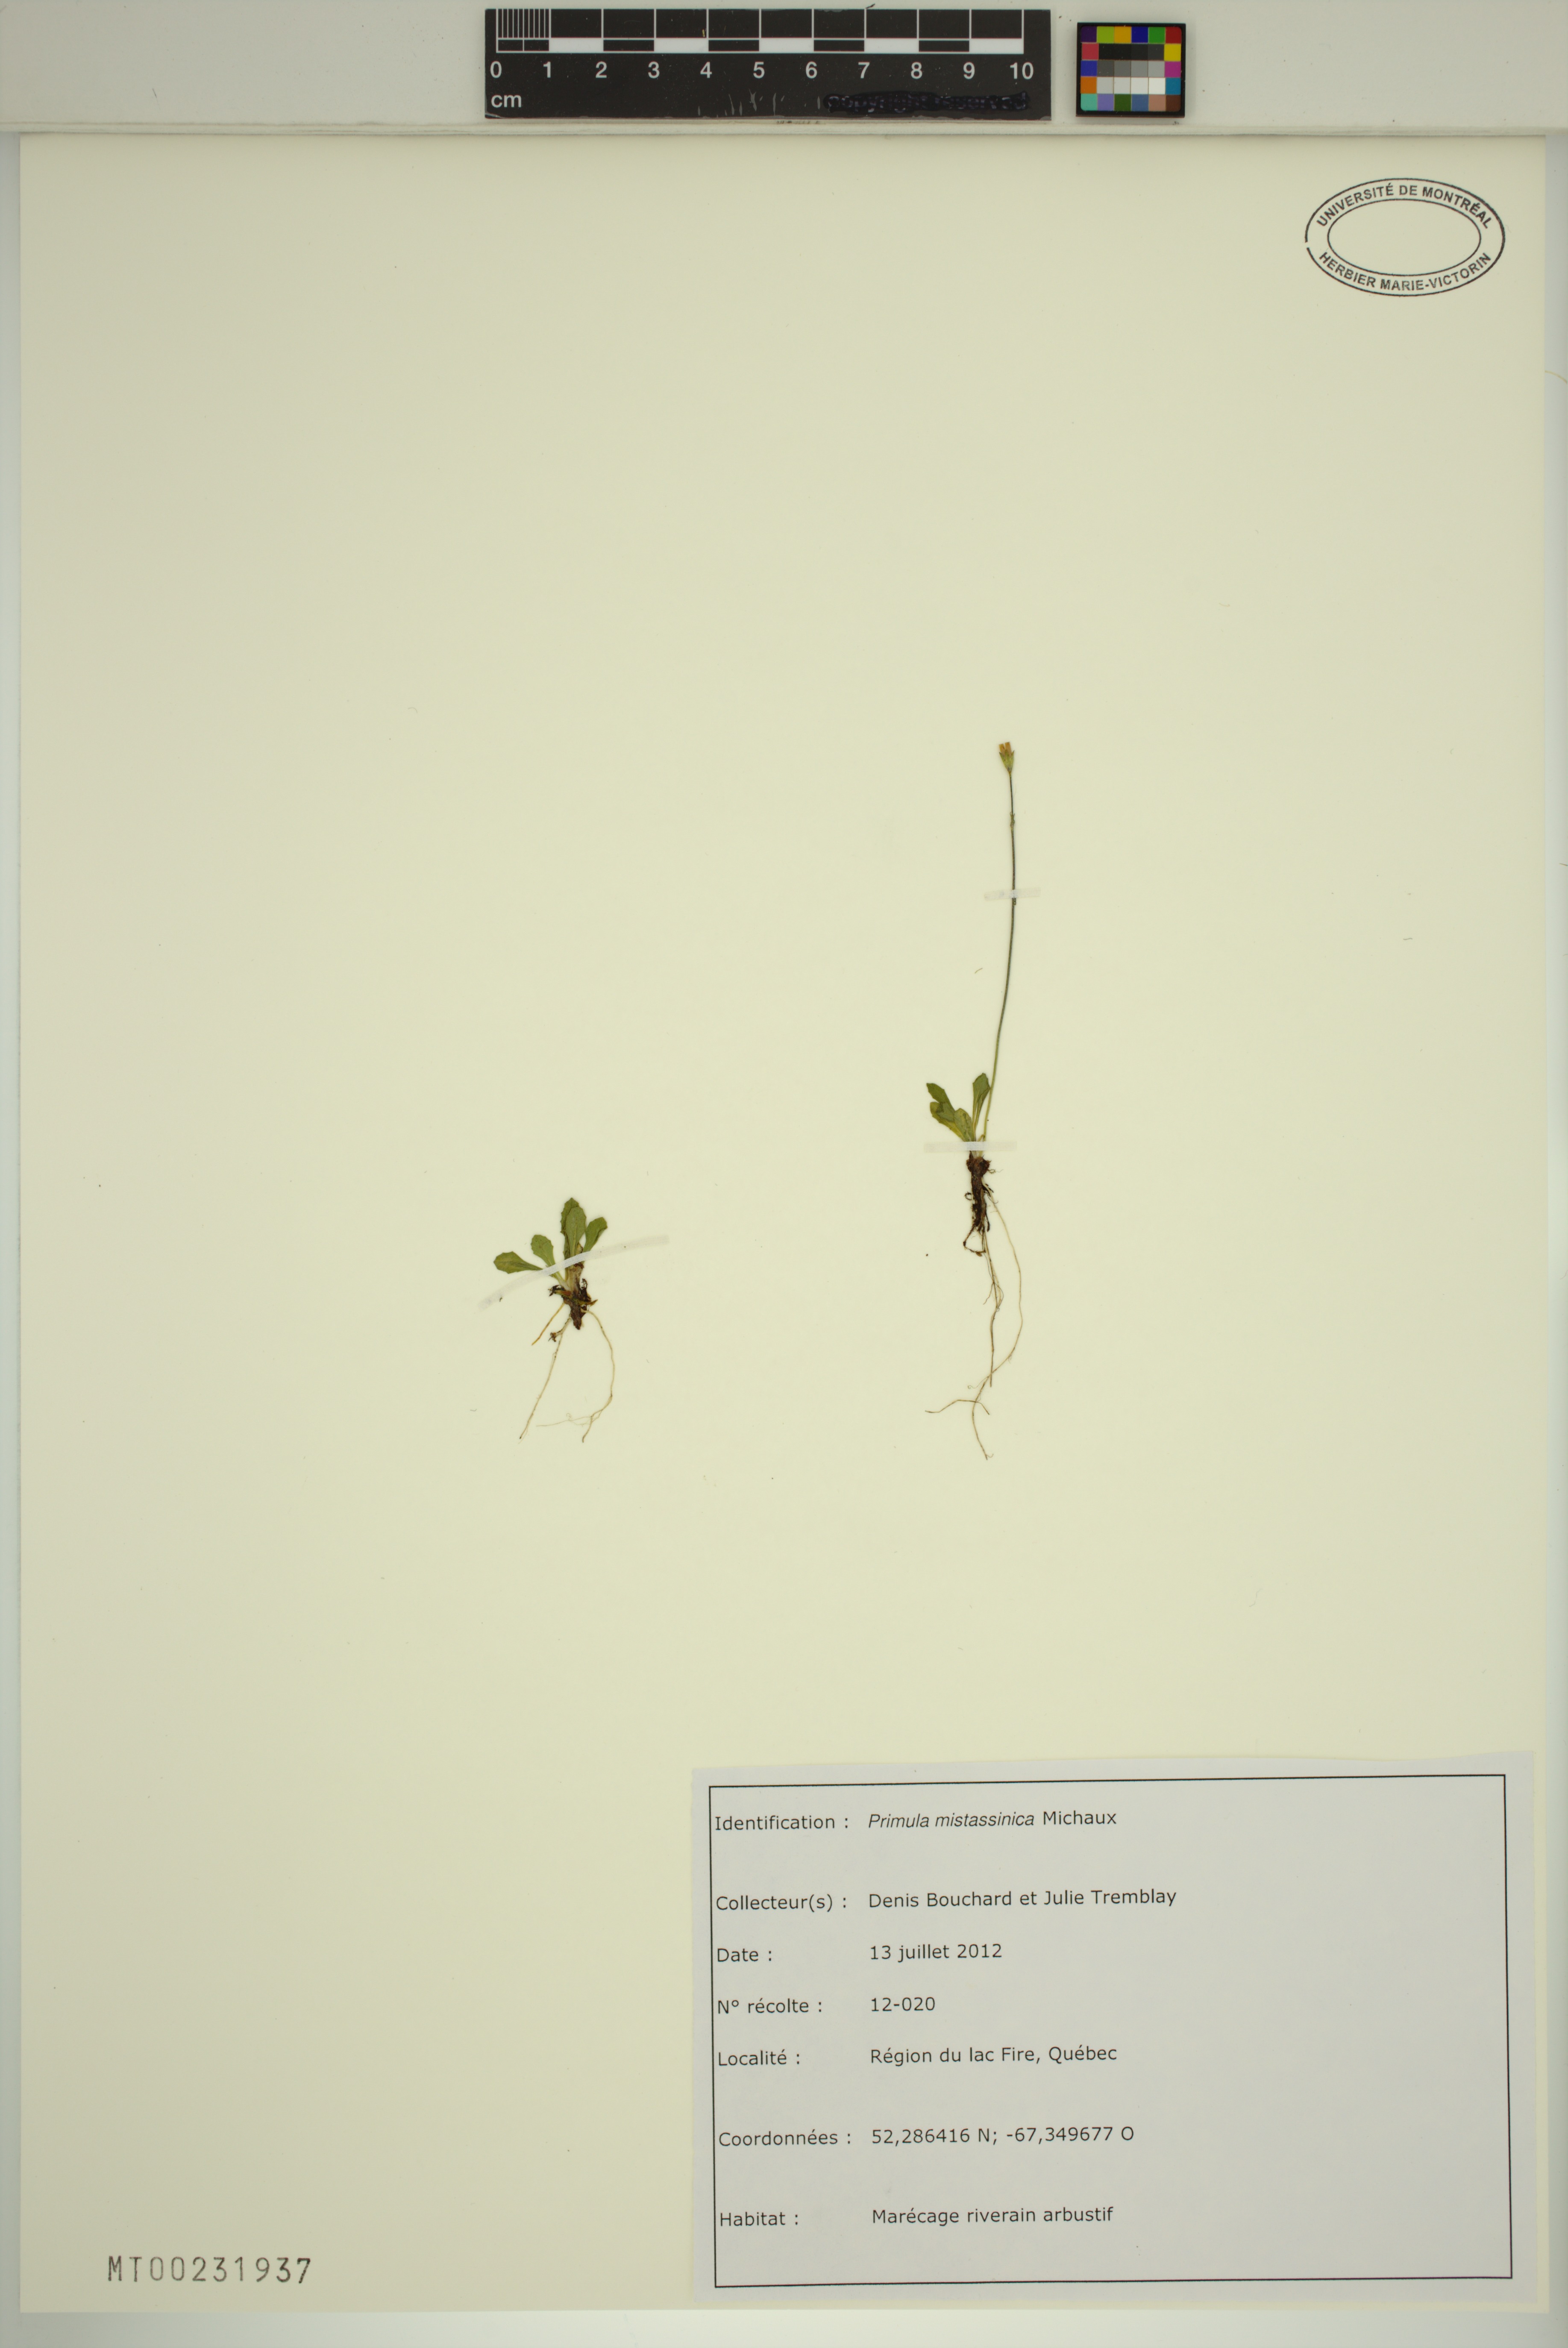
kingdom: Plantae
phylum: Tracheophyta
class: Magnoliopsida
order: Ericales
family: Primulaceae
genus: Primula
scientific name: Primula mistassinica
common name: Bird's-eye primrose
